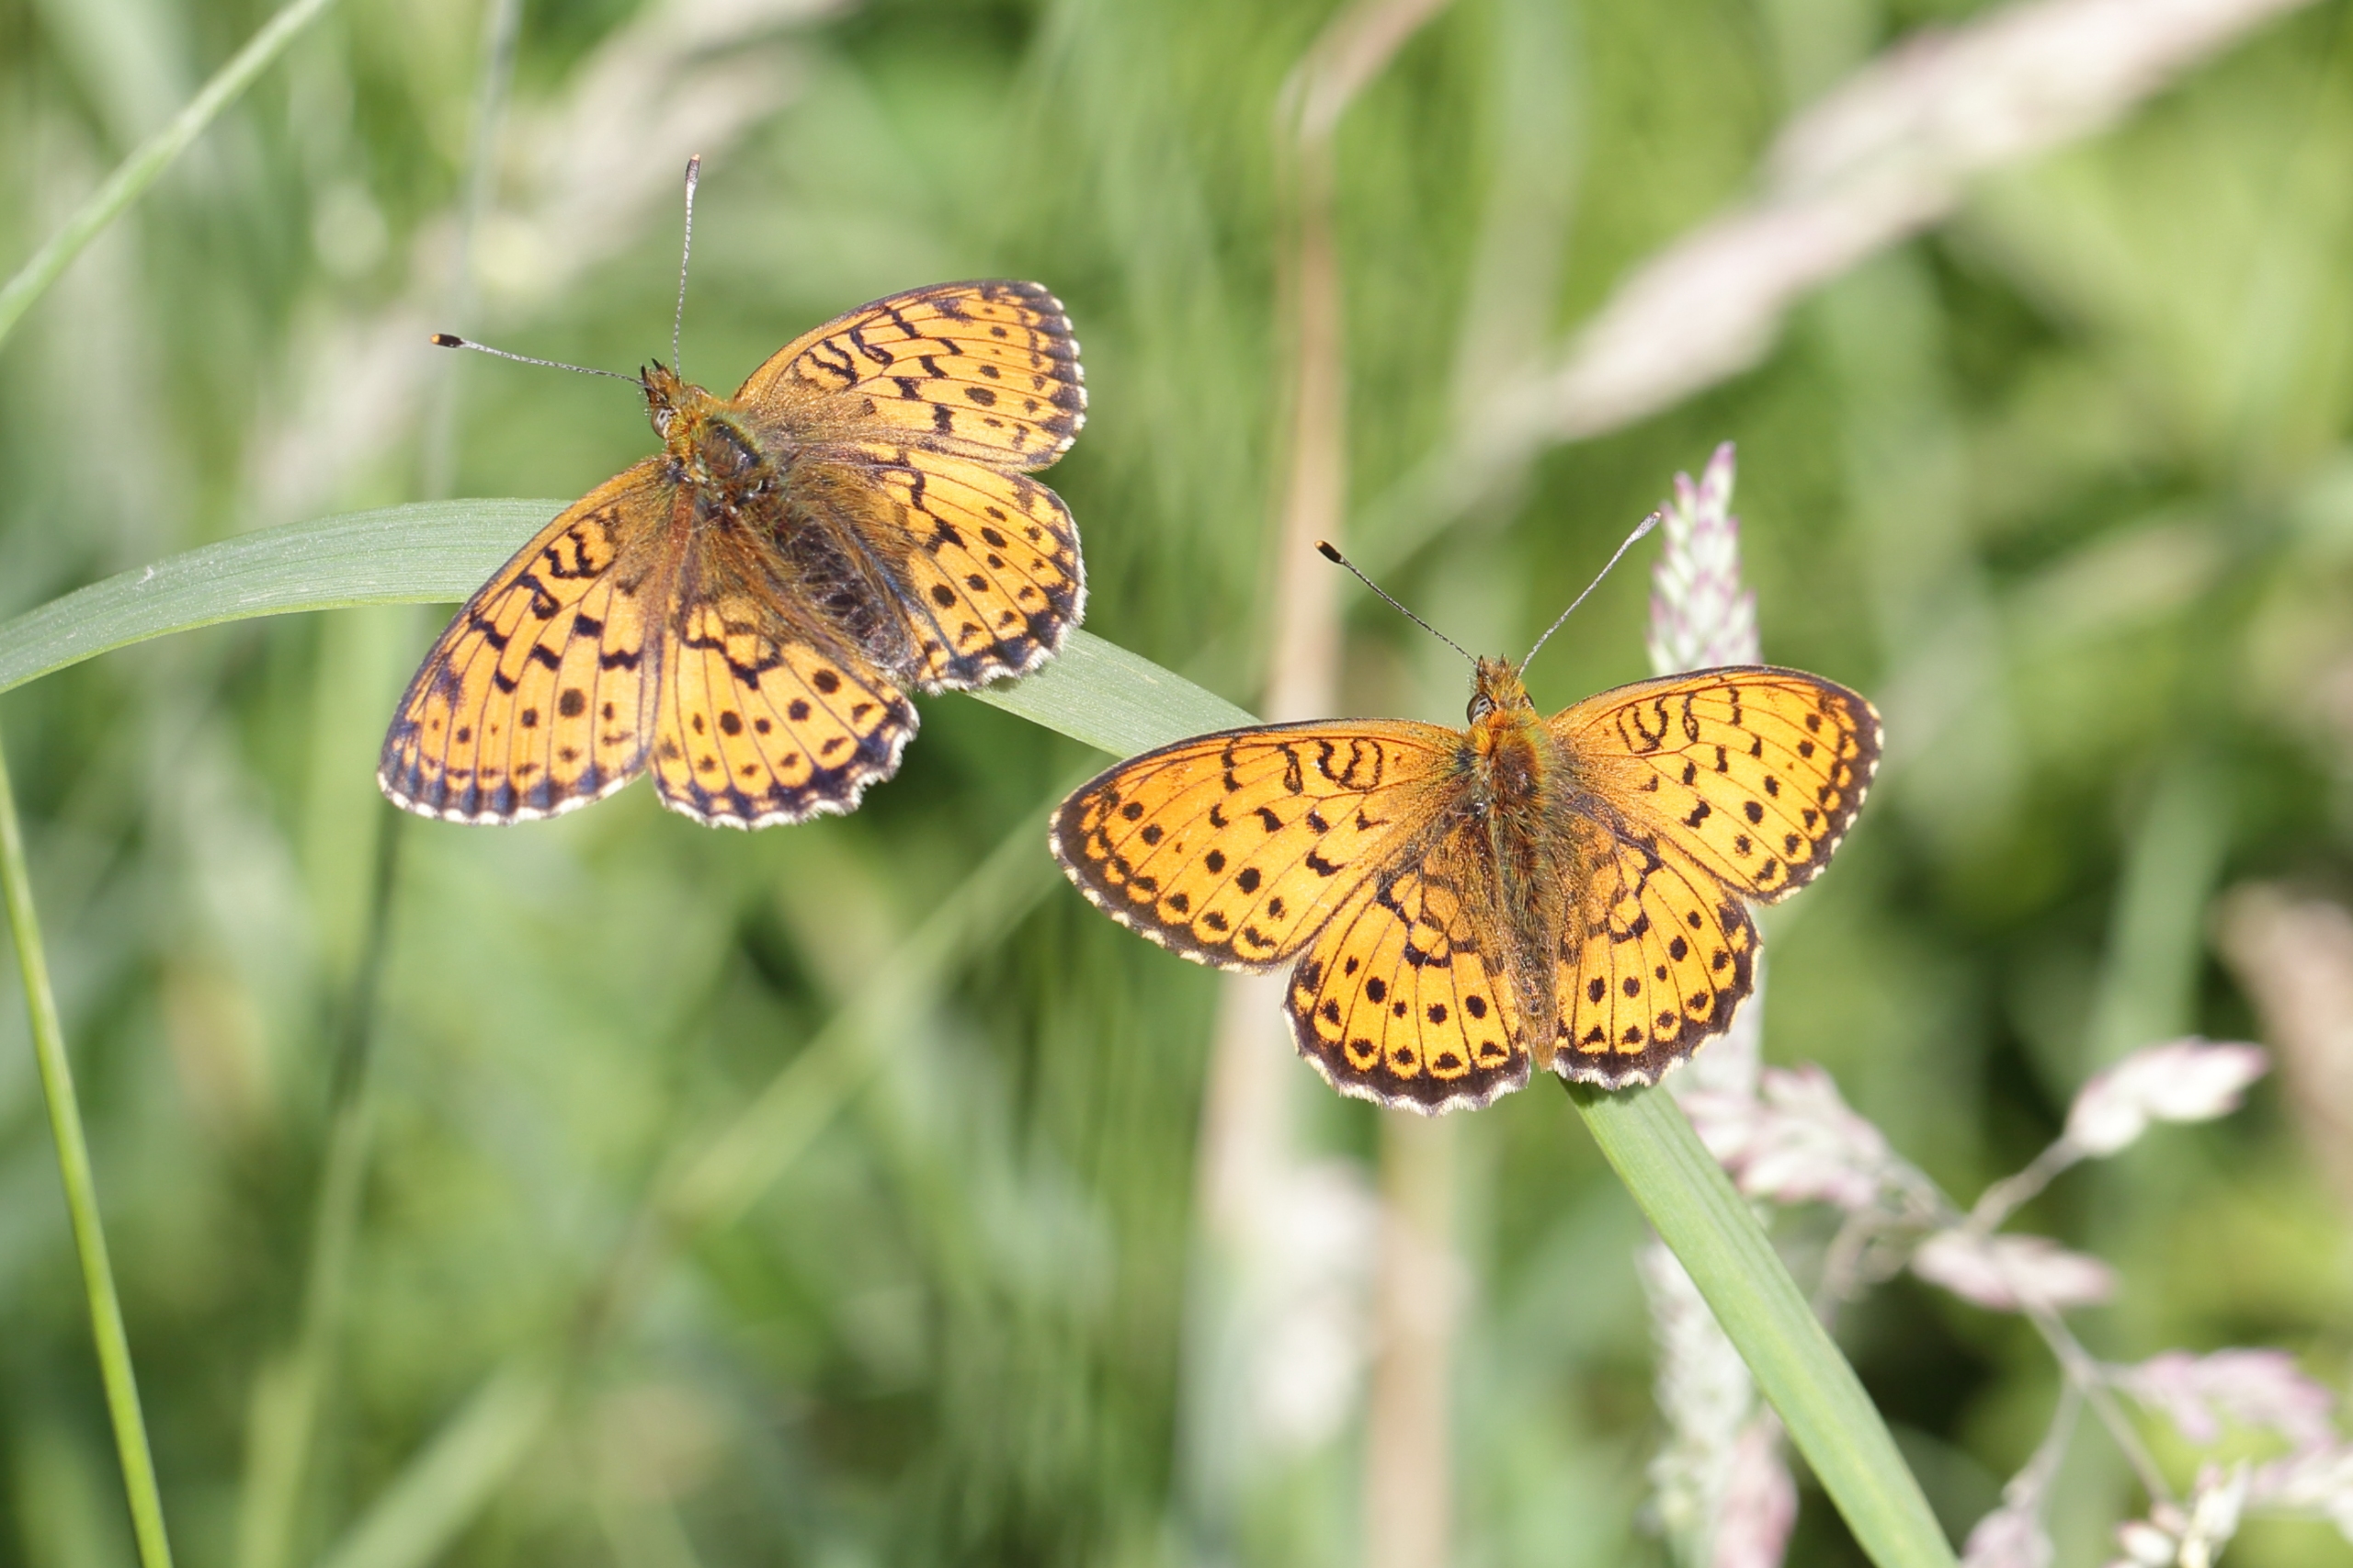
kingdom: Animalia
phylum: Arthropoda
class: Insecta
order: Lepidoptera
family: Nymphalidae
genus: Brenthis
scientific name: Brenthis ino
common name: Engperlemorsommerfugl
